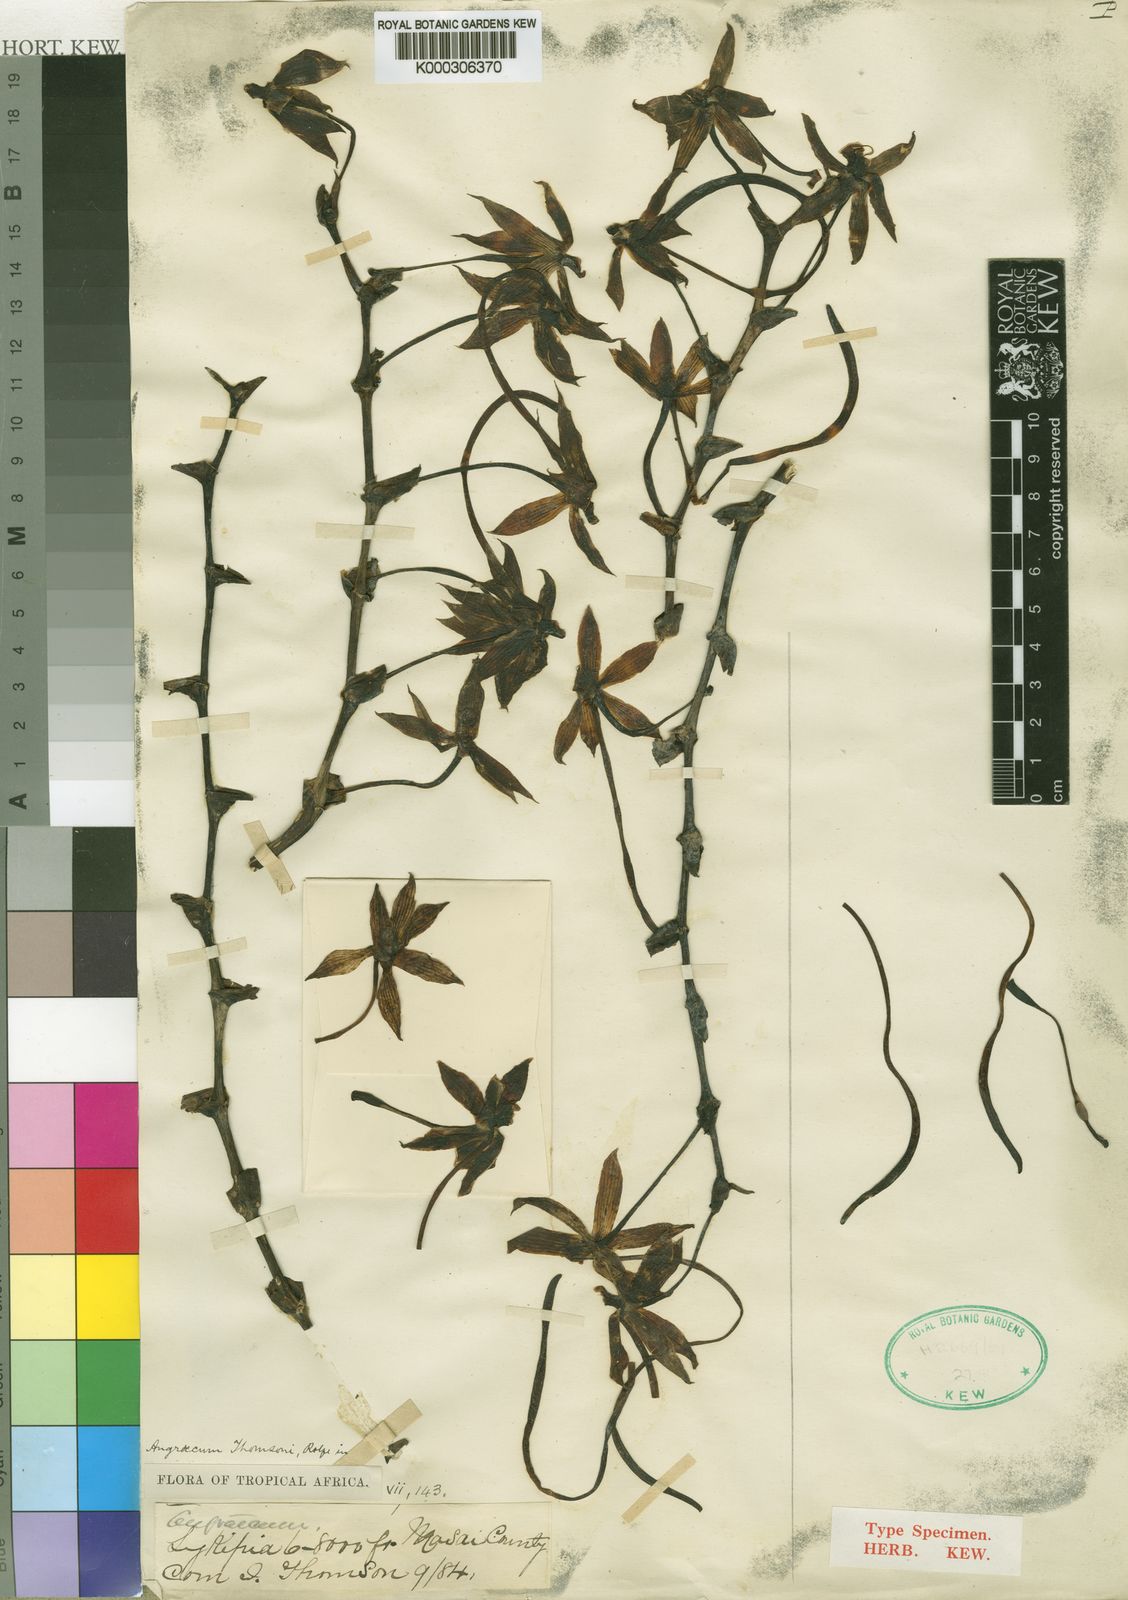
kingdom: Plantae
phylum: Tracheophyta
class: Liliopsida
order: Asparagales
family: Orchidaceae
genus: Aerangis
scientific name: Aerangis thomsonii
